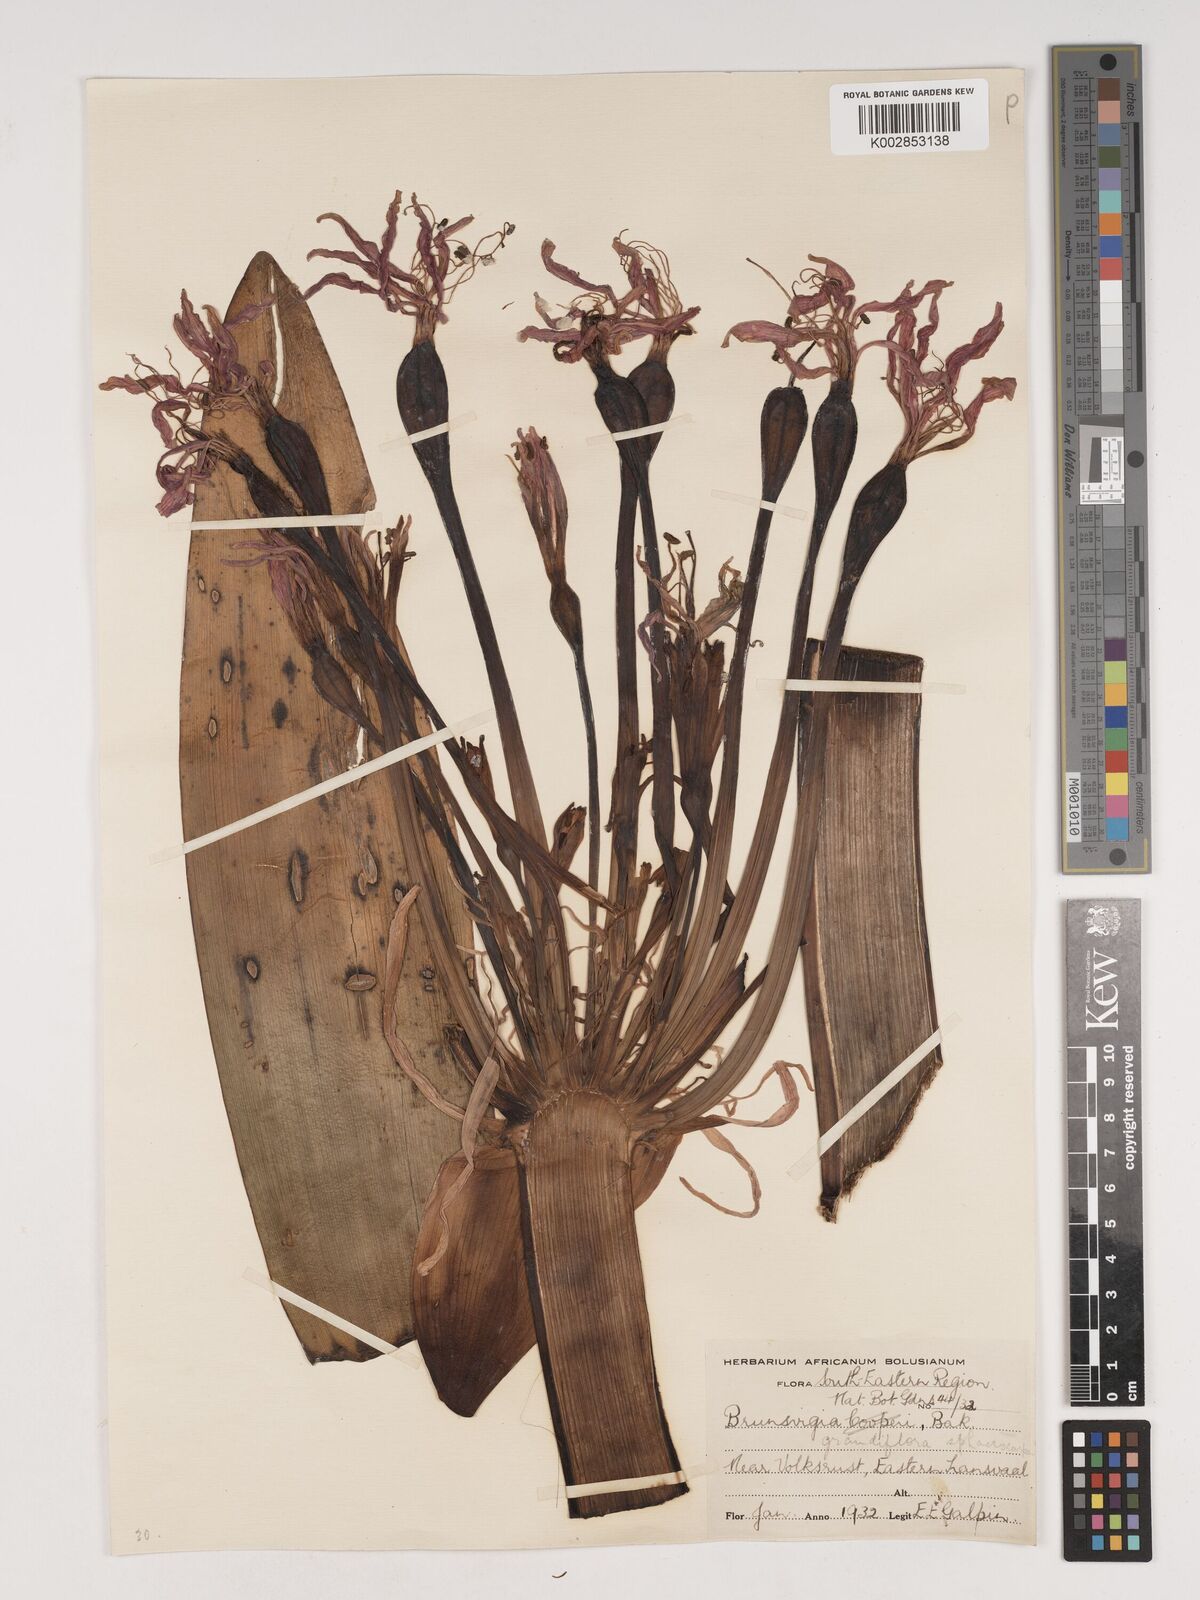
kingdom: Plantae
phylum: Tracheophyta
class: Liliopsida
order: Asparagales
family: Amaryllidaceae
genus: Brunsvigia
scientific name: Brunsvigia grandiflora
